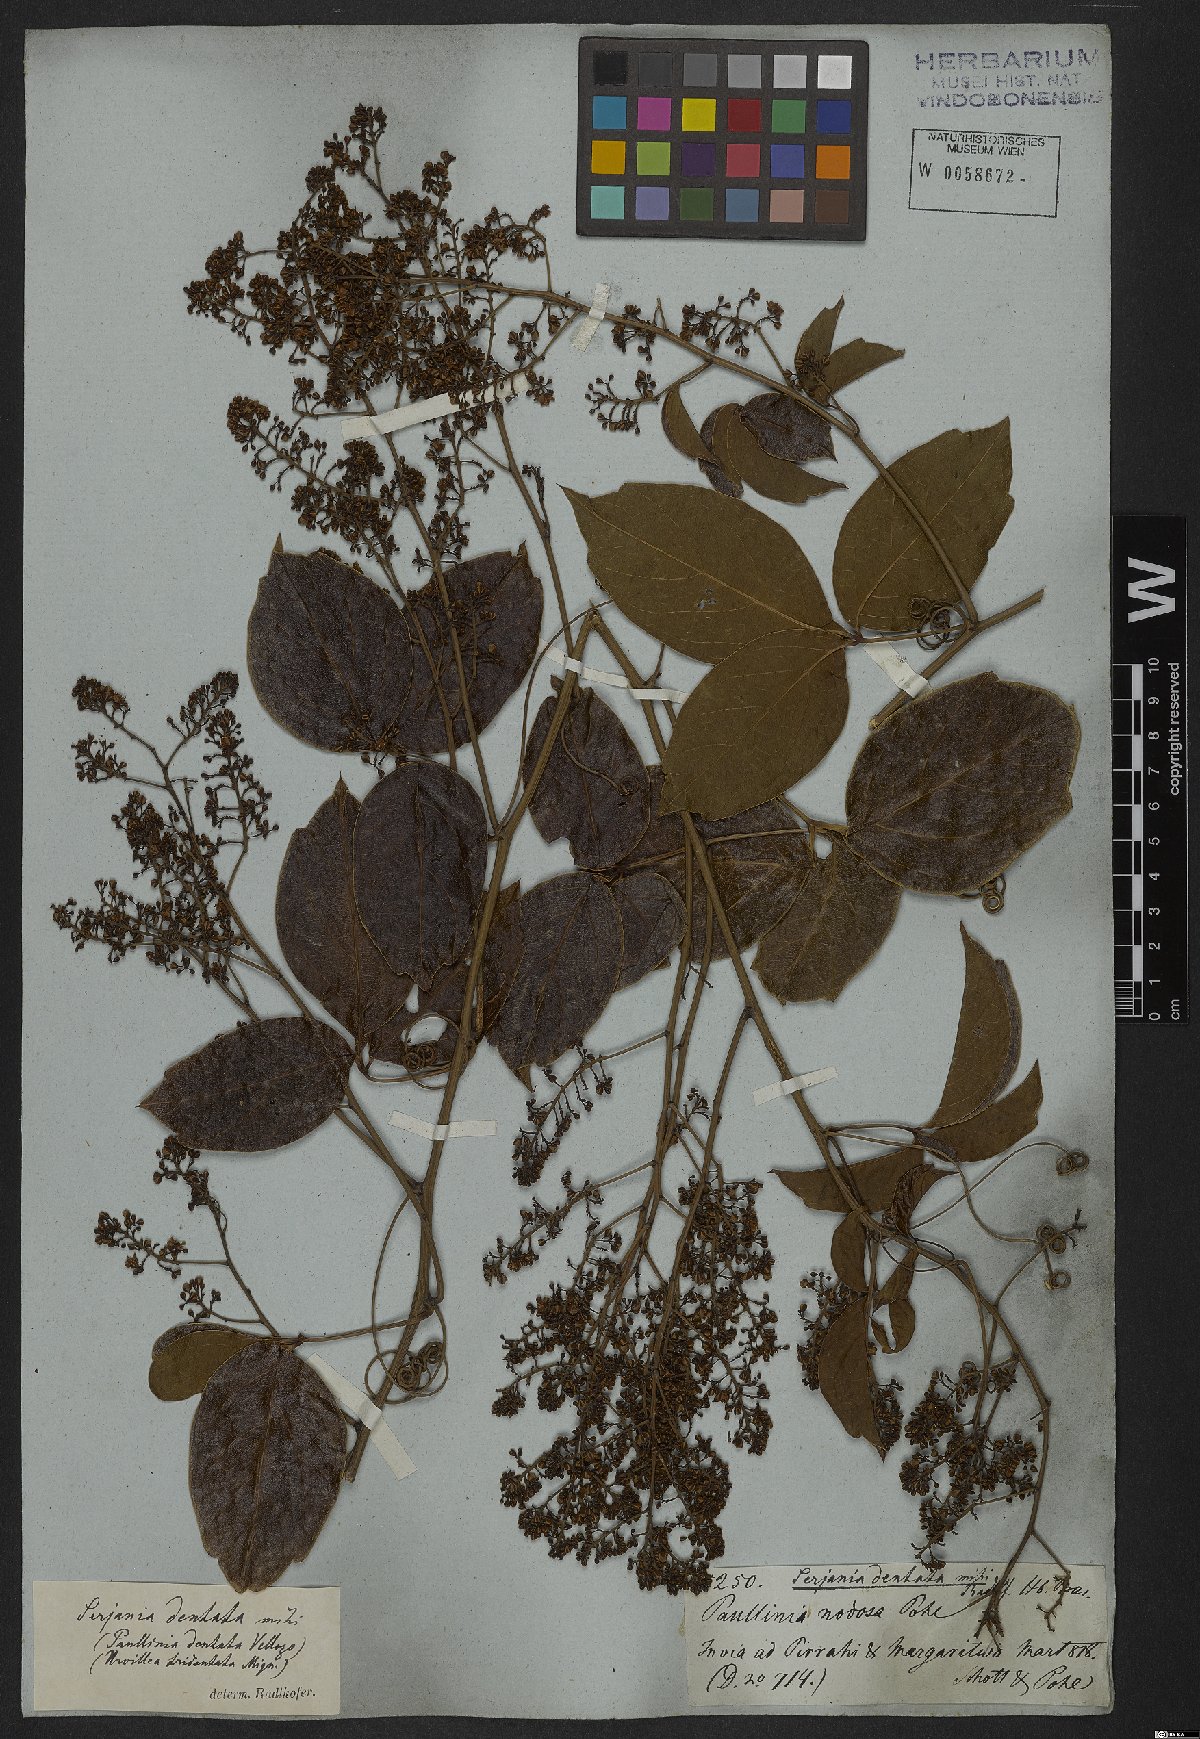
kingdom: Plantae
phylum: Tracheophyta
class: Magnoliopsida
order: Sapindales
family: Sapindaceae
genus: Serjania
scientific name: Serjania dentata
